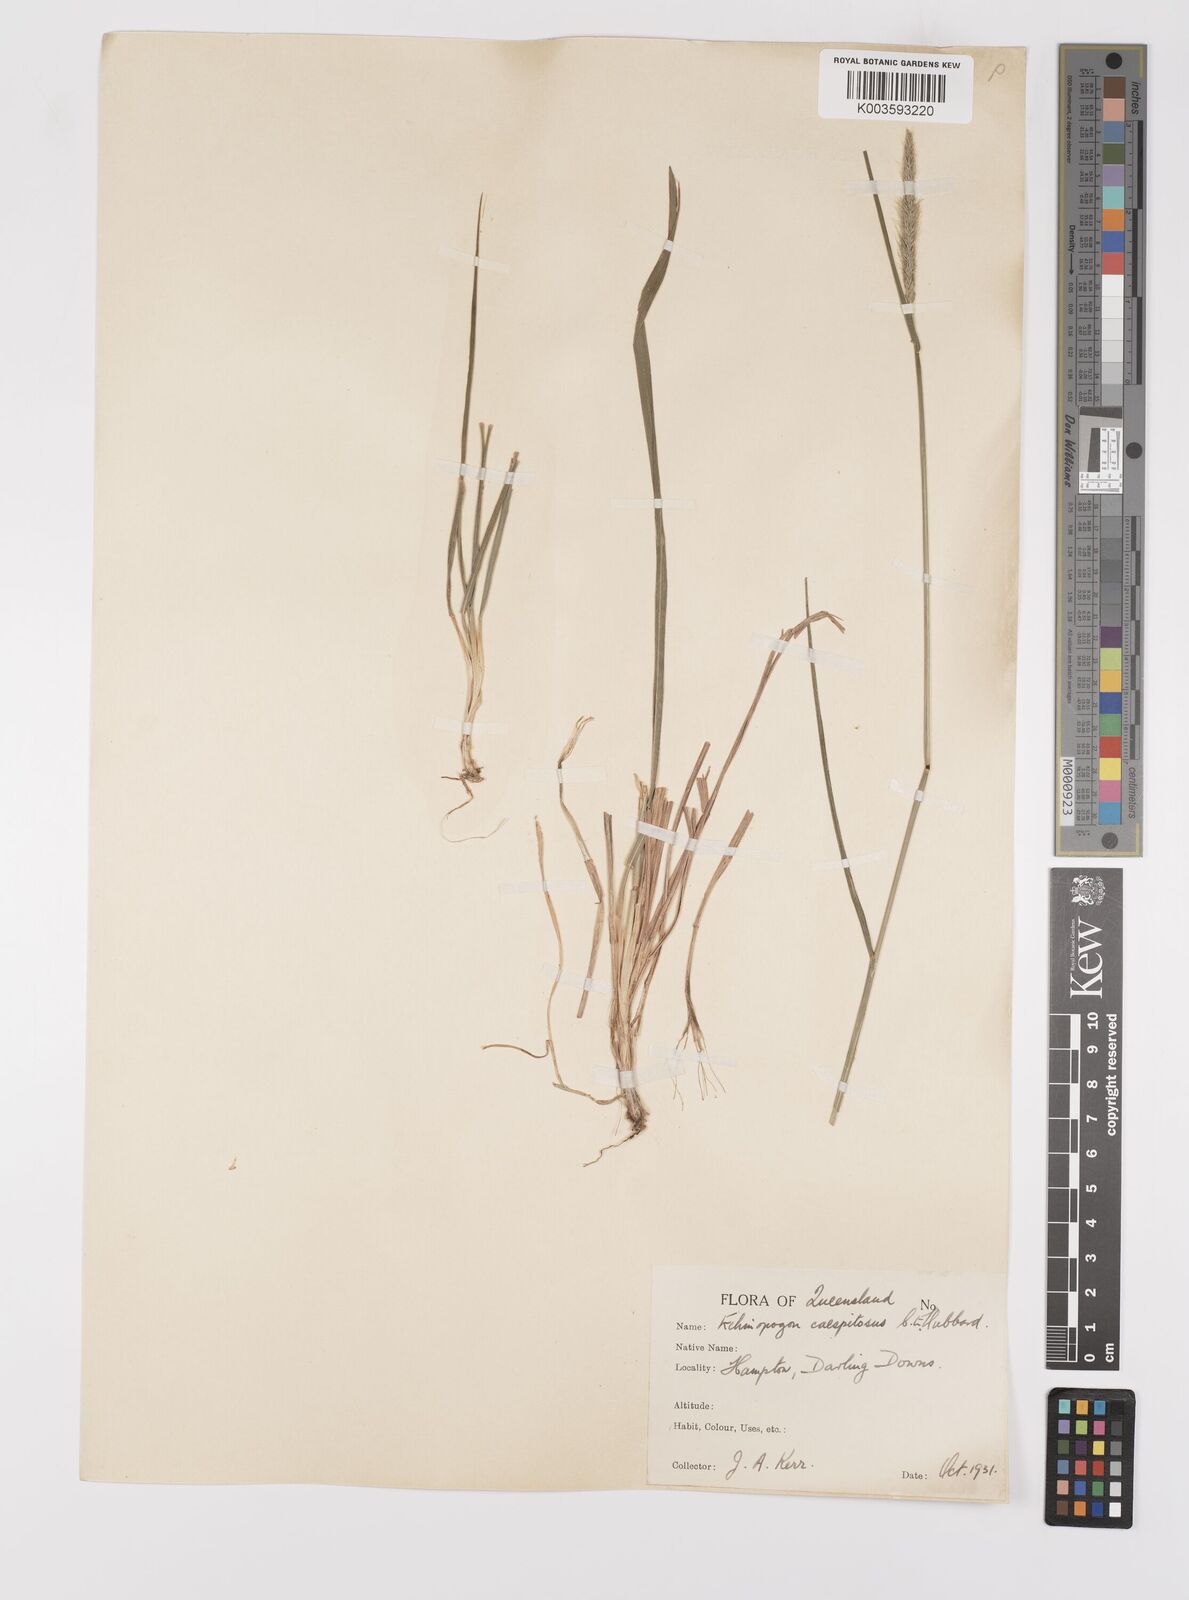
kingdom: Plantae
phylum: Tracheophyta
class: Liliopsida
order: Poales
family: Poaceae
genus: Echinopogon
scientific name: Echinopogon caespitosus
